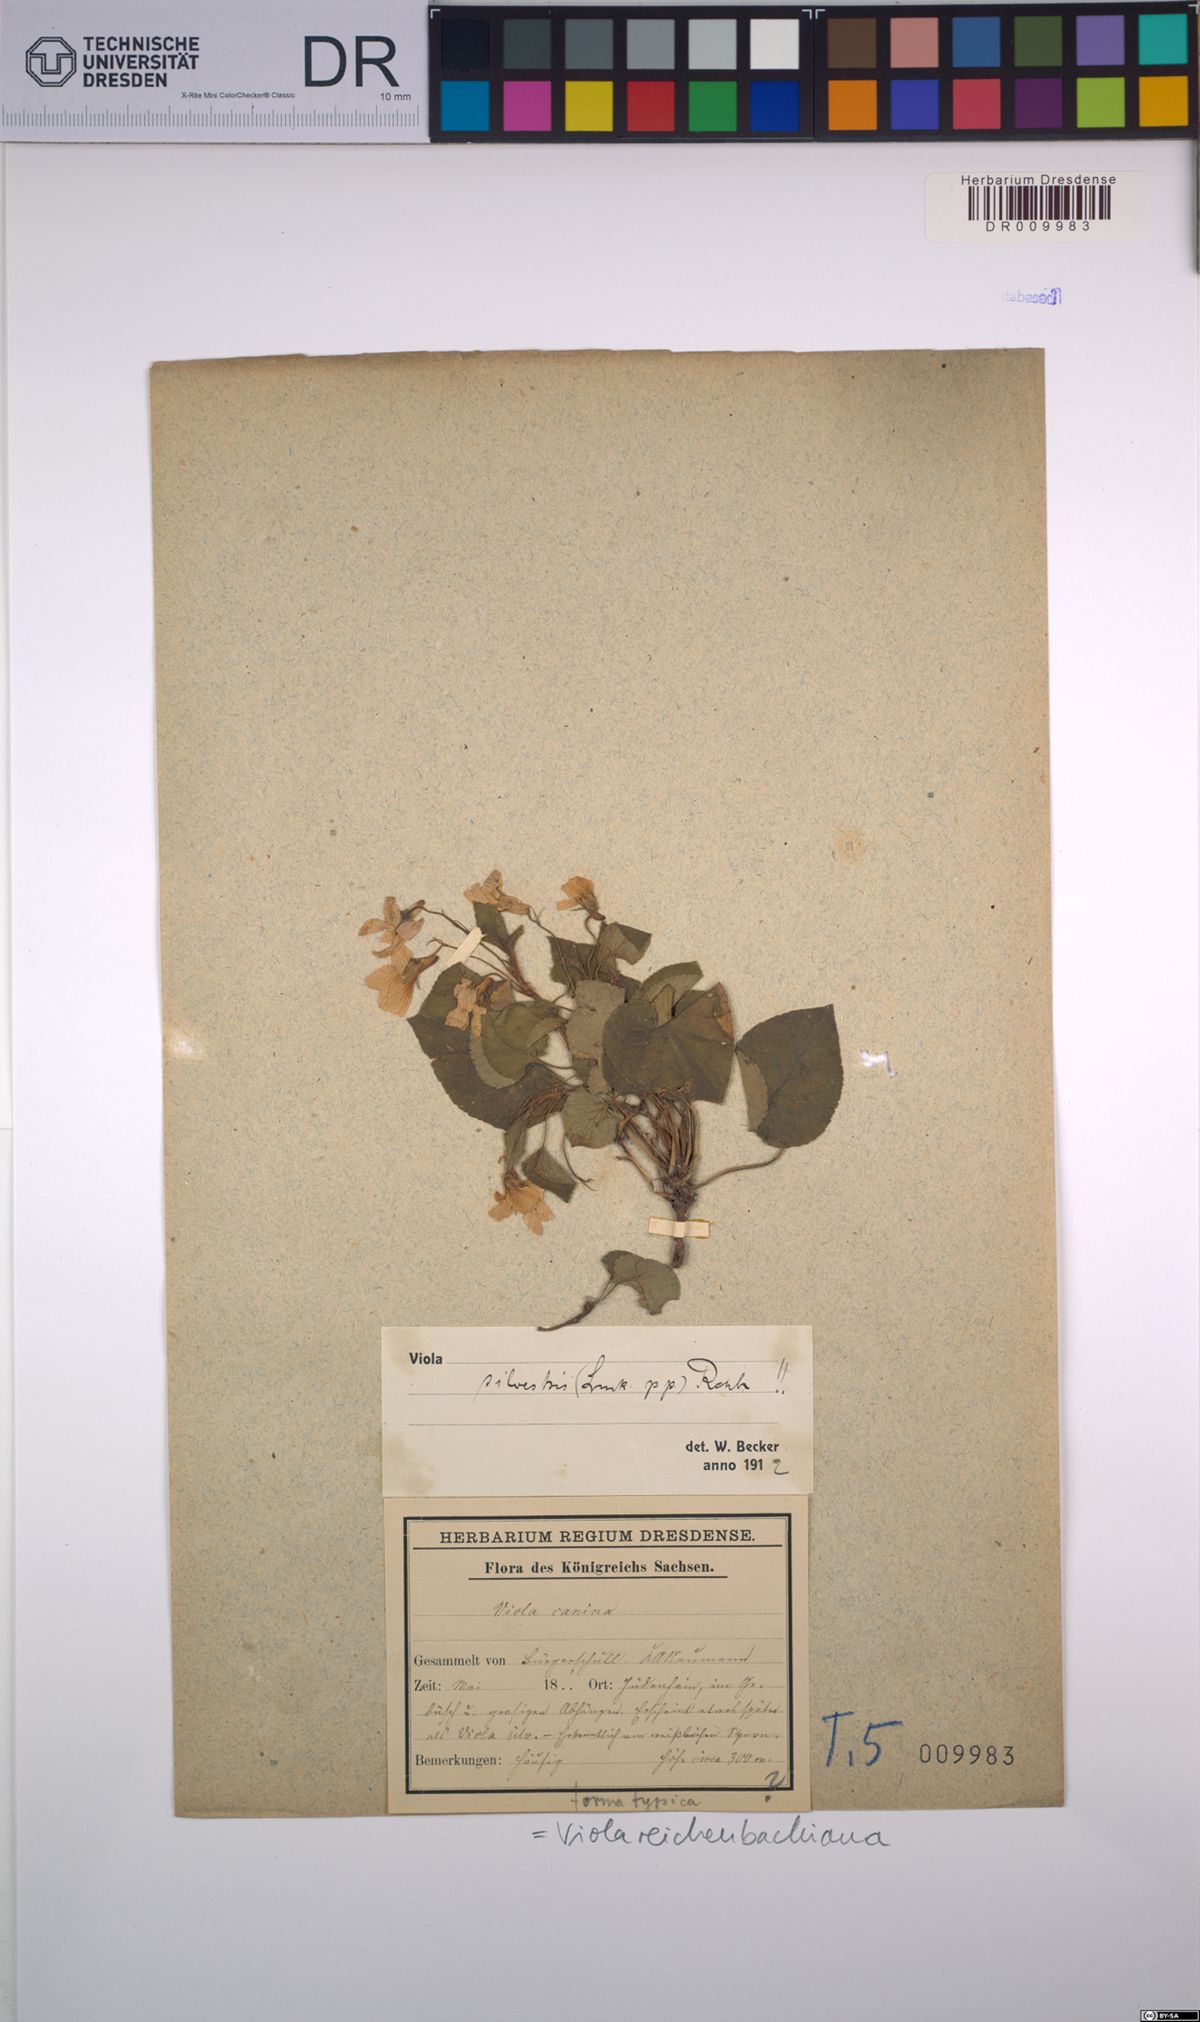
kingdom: Plantae
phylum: Tracheophyta
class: Magnoliopsida
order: Malpighiales
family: Violaceae
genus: Viola
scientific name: Viola reichenbachiana
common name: Early dog-violet
